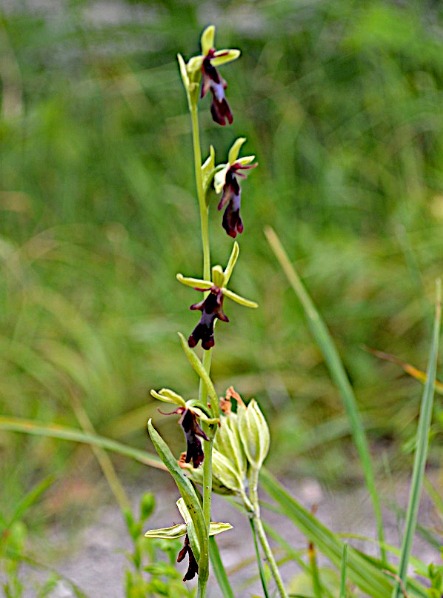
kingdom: Plantae
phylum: Tracheophyta
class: Liliopsida
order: Asparagales
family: Orchidaceae
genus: Ophrys
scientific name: Ophrys insectifera
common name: Flueblomst
